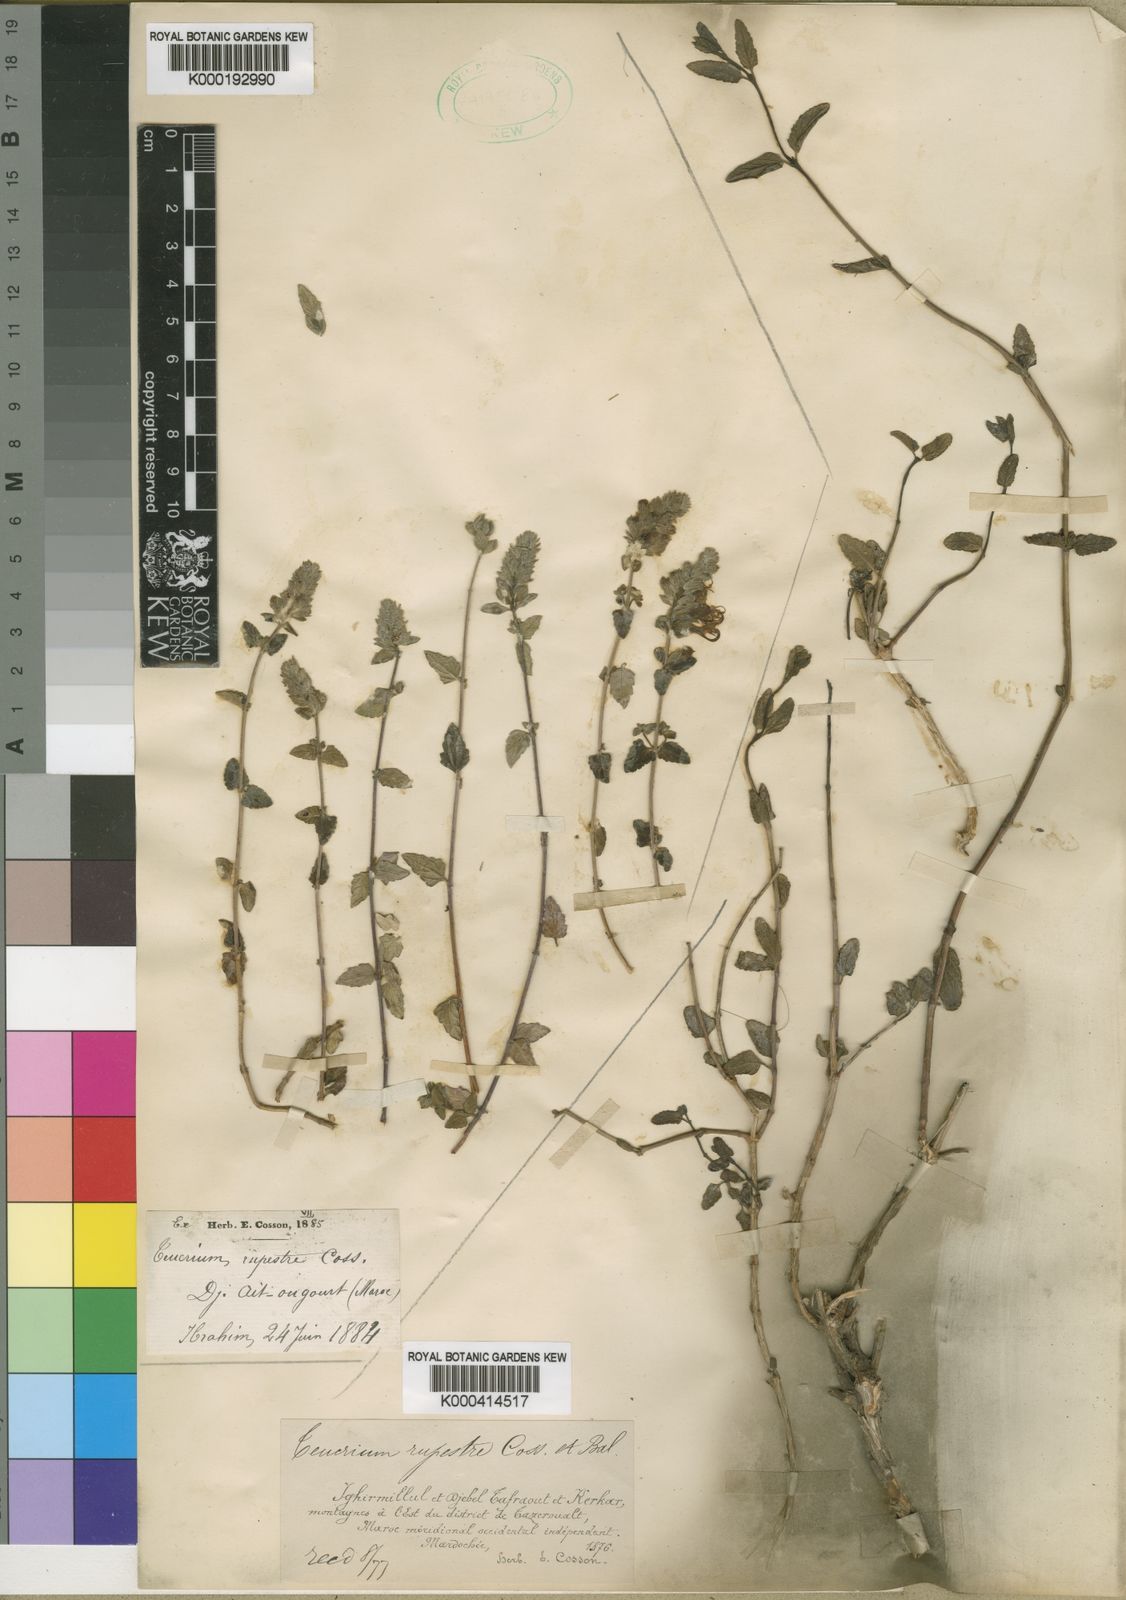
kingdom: Plantae
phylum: Tracheophyta
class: Magnoliopsida
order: Lamiales
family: Lamiaceae
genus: Teucrium
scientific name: Teucrium rupestre
